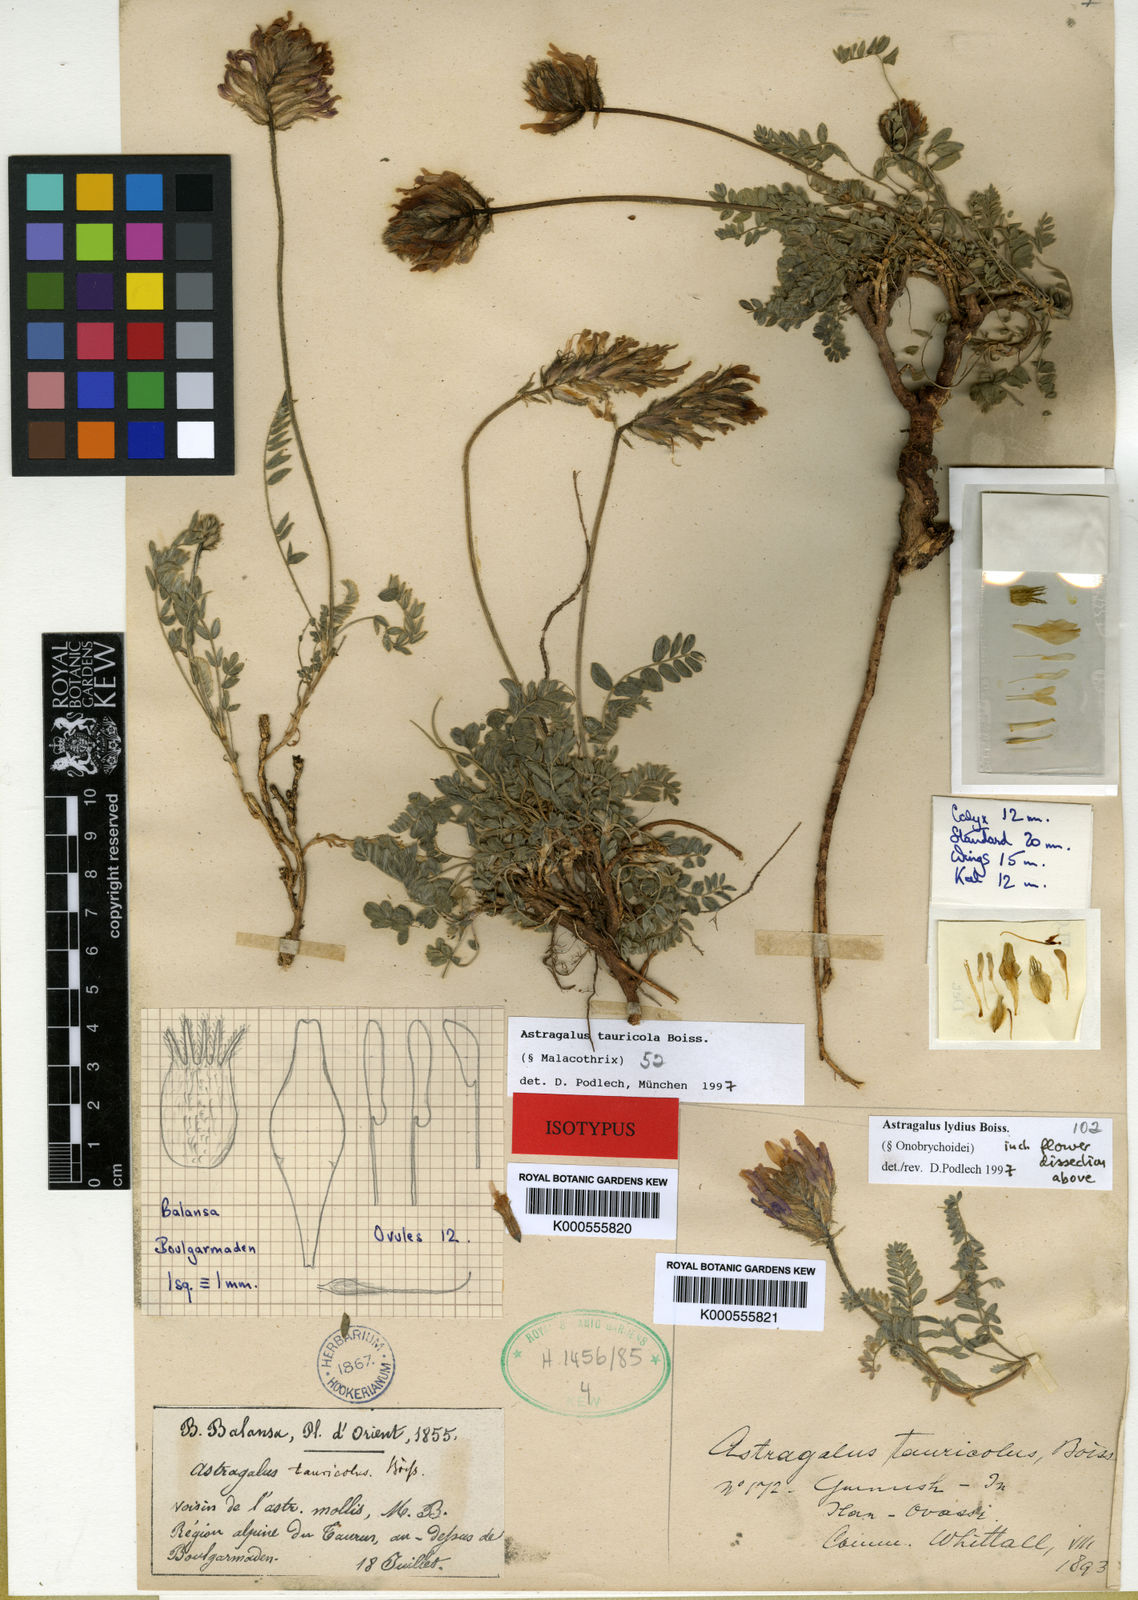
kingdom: Plantae
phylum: Tracheophyta
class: Magnoliopsida
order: Fabales
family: Fabaceae
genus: Astragalus
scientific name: Astragalus tauricola
